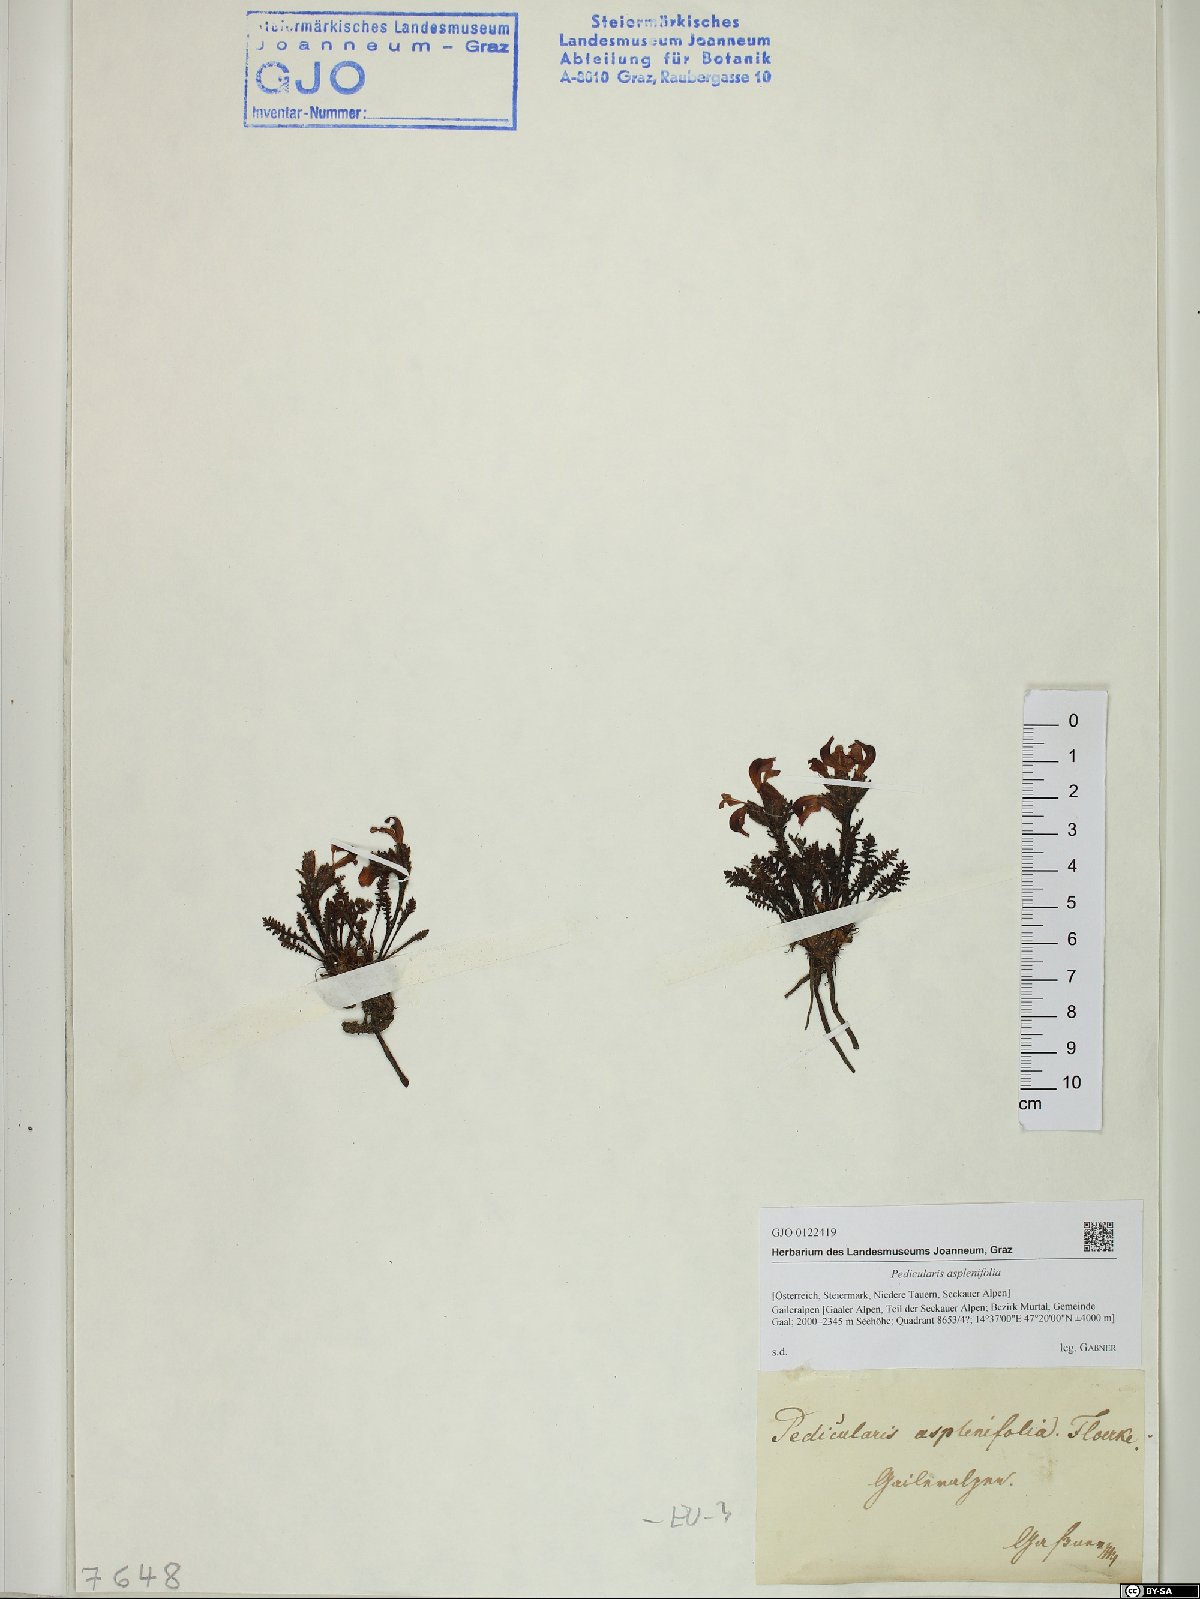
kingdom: Plantae
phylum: Tracheophyta
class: Magnoliopsida
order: Lamiales
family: Orobanchaceae
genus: Pedicularis
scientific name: Pedicularis asplenifolia
